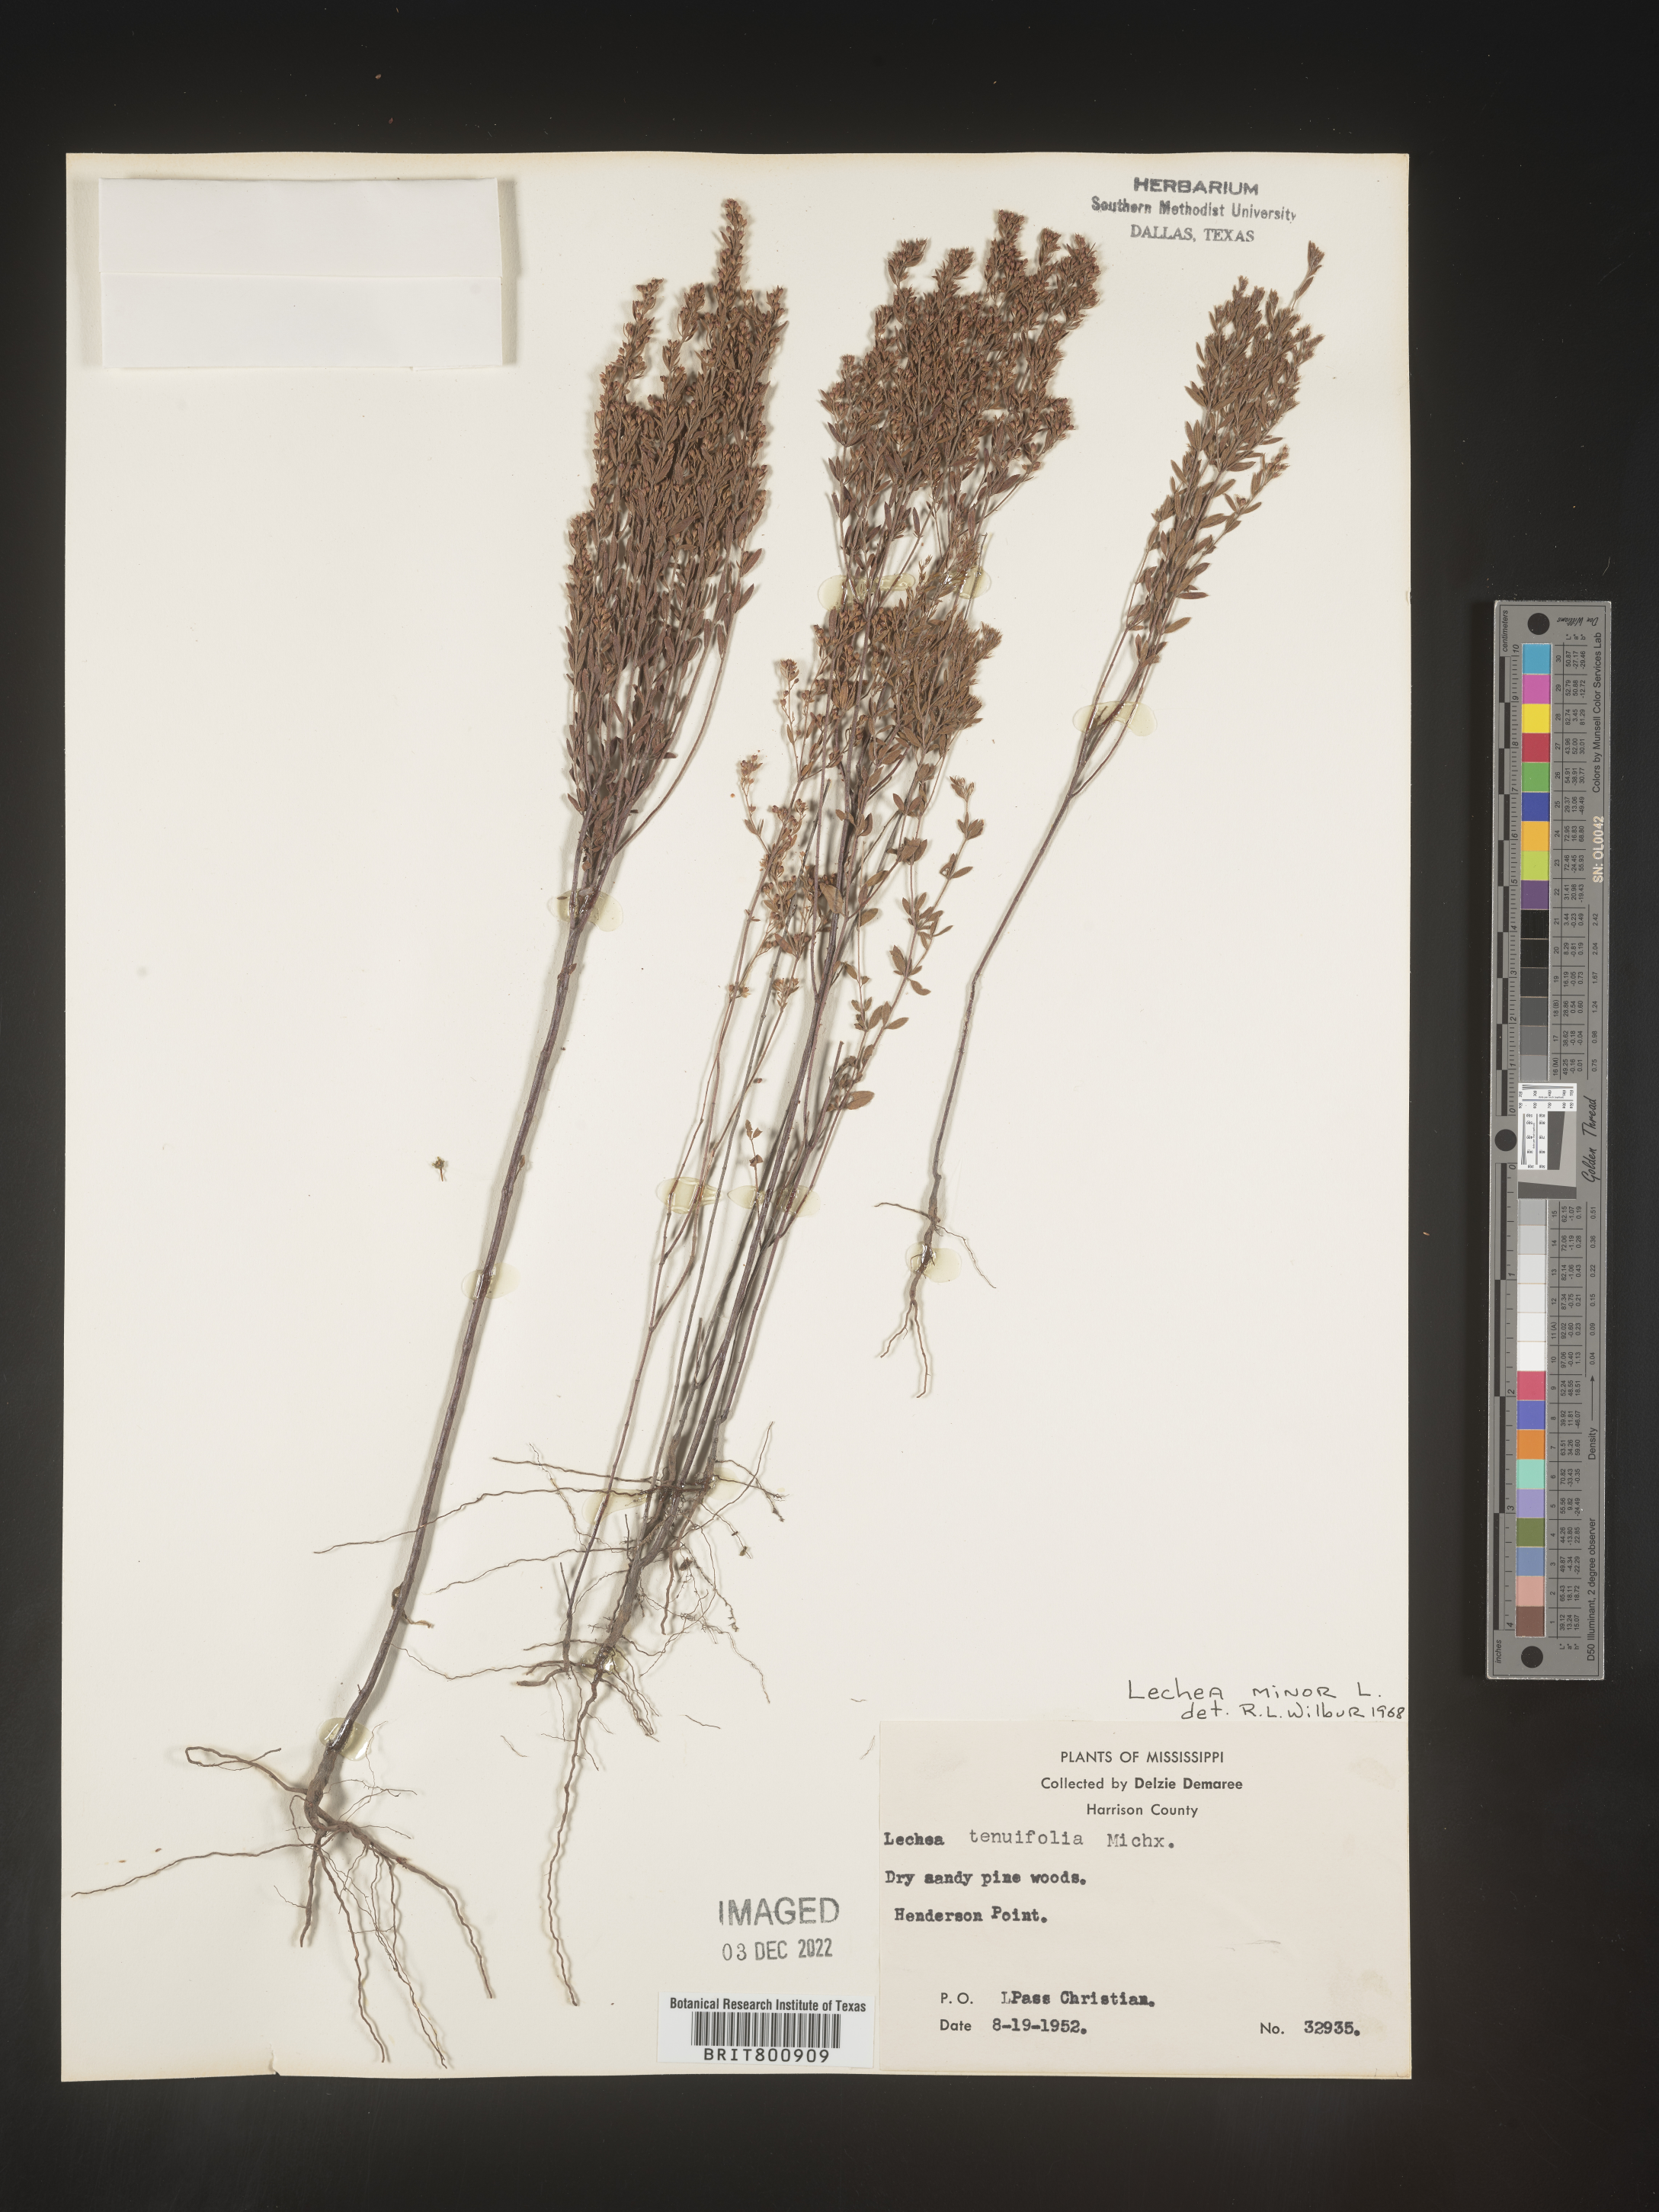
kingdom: Plantae
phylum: Tracheophyta
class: Magnoliopsida
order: Malvales
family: Cistaceae
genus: Lechea
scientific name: Lechea minor
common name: Thyme-leaf pinweed
